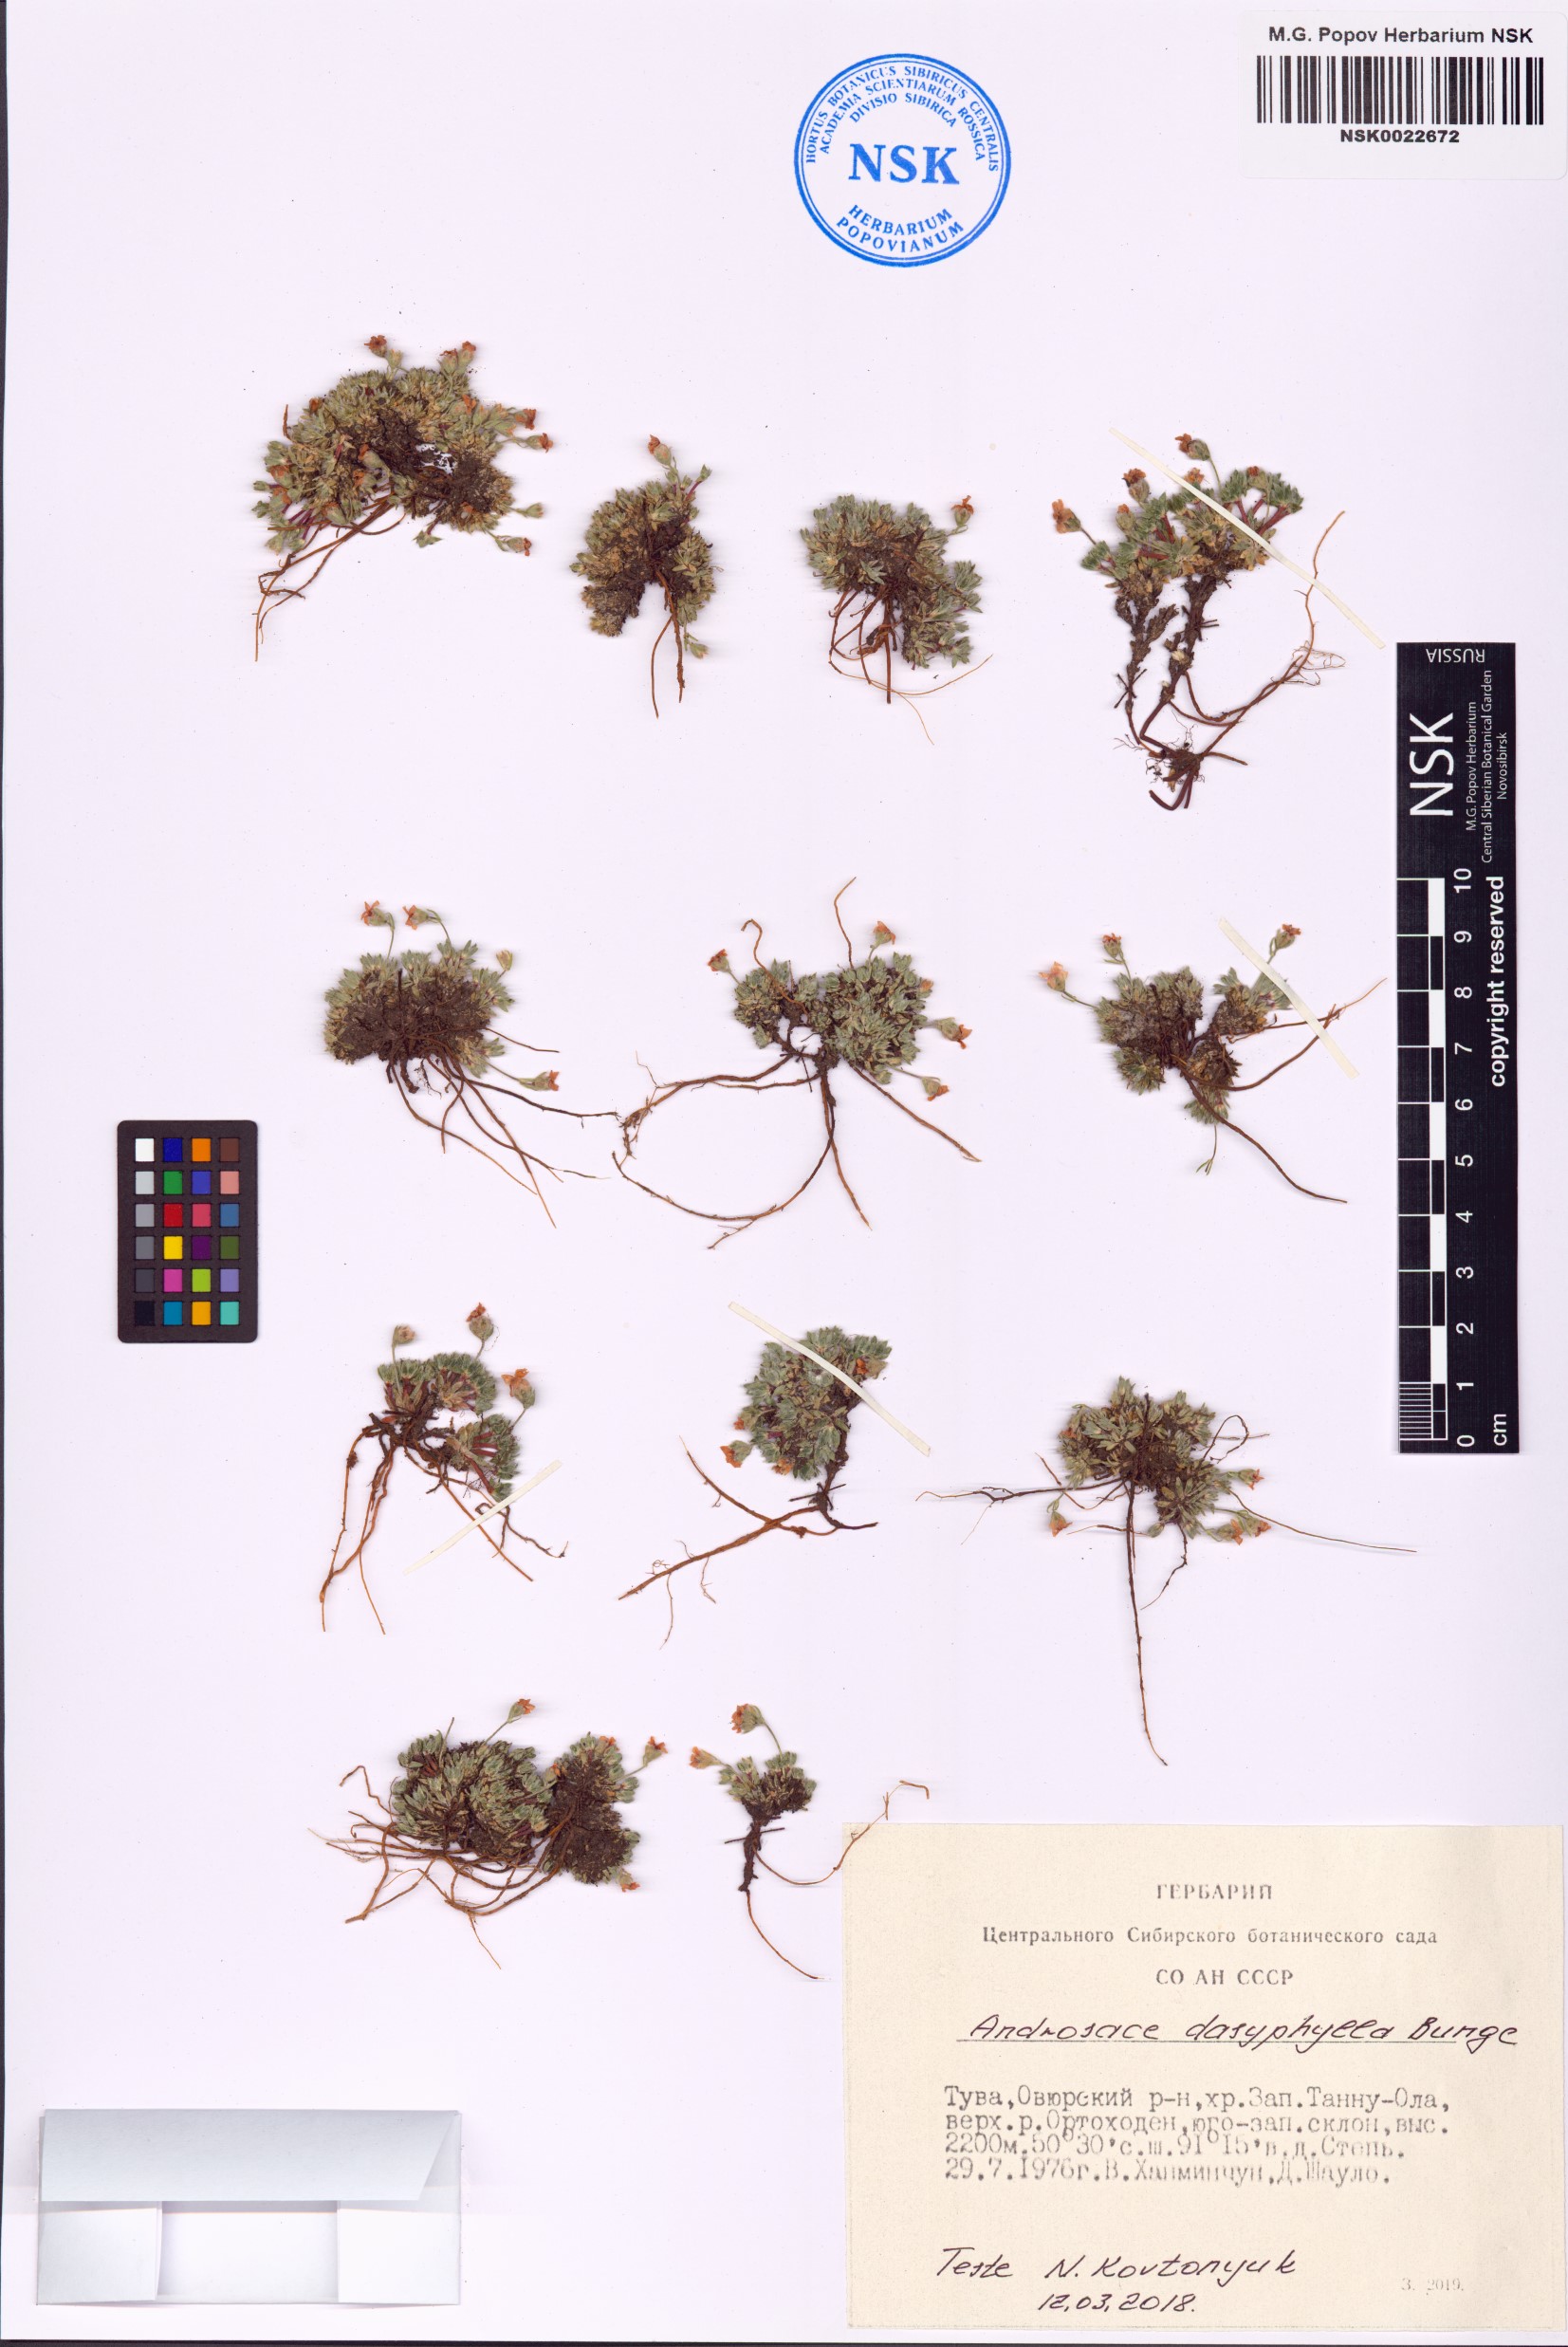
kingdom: Plantae
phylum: Tracheophyta
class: Magnoliopsida
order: Ericales
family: Primulaceae
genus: Androsace
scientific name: Androsace dasyphylla
